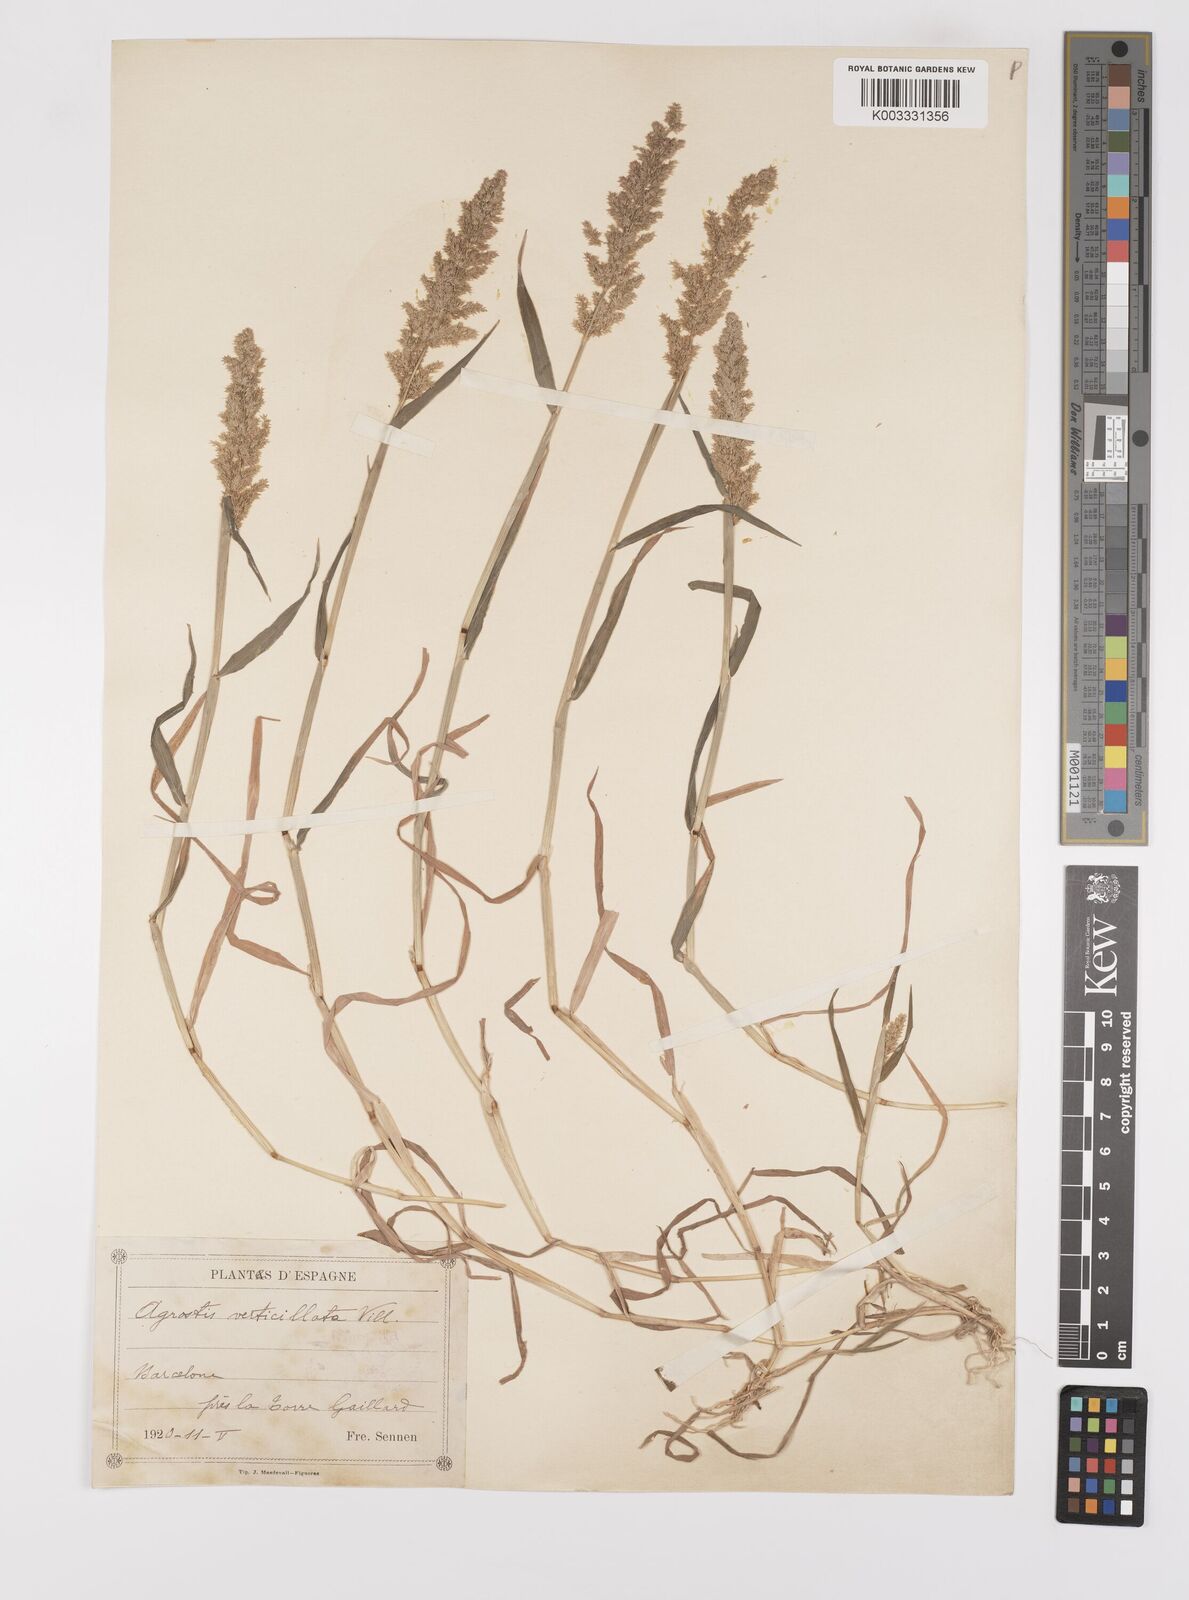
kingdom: Plantae
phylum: Tracheophyta
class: Liliopsida
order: Poales
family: Poaceae
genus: Polypogon
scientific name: Polypogon viridis
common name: Water bent
